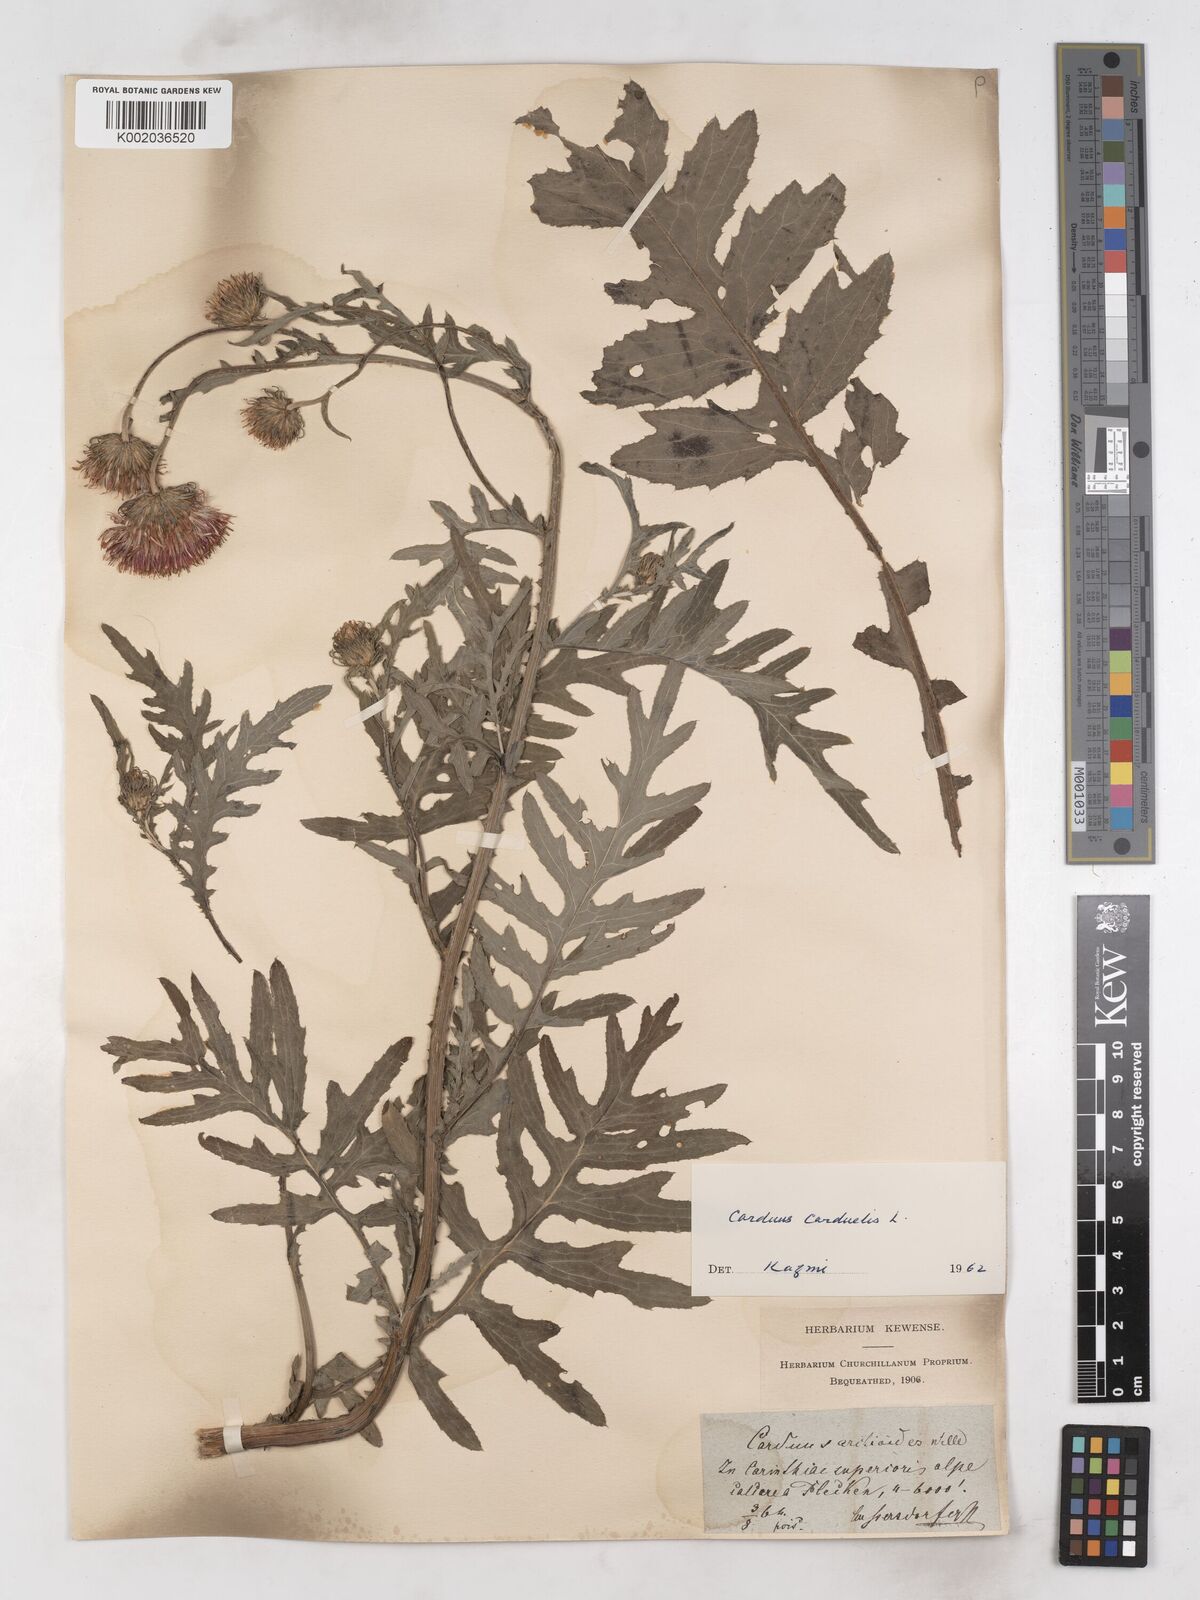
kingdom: Plantae
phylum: Tracheophyta
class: Magnoliopsida
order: Asterales
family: Asteraceae
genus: Carduus
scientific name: Carduus carduelis
